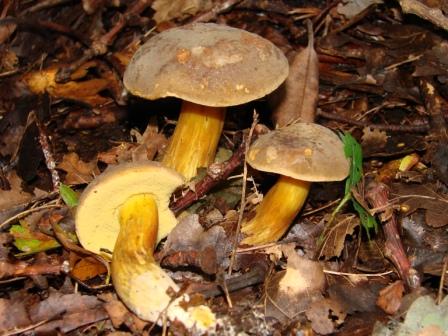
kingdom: Fungi
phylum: Basidiomycota
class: Agaricomycetes
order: Boletales
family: Boletaceae
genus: Xerocomellus
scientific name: Xerocomellus pruinatus
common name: dugget rørhat
